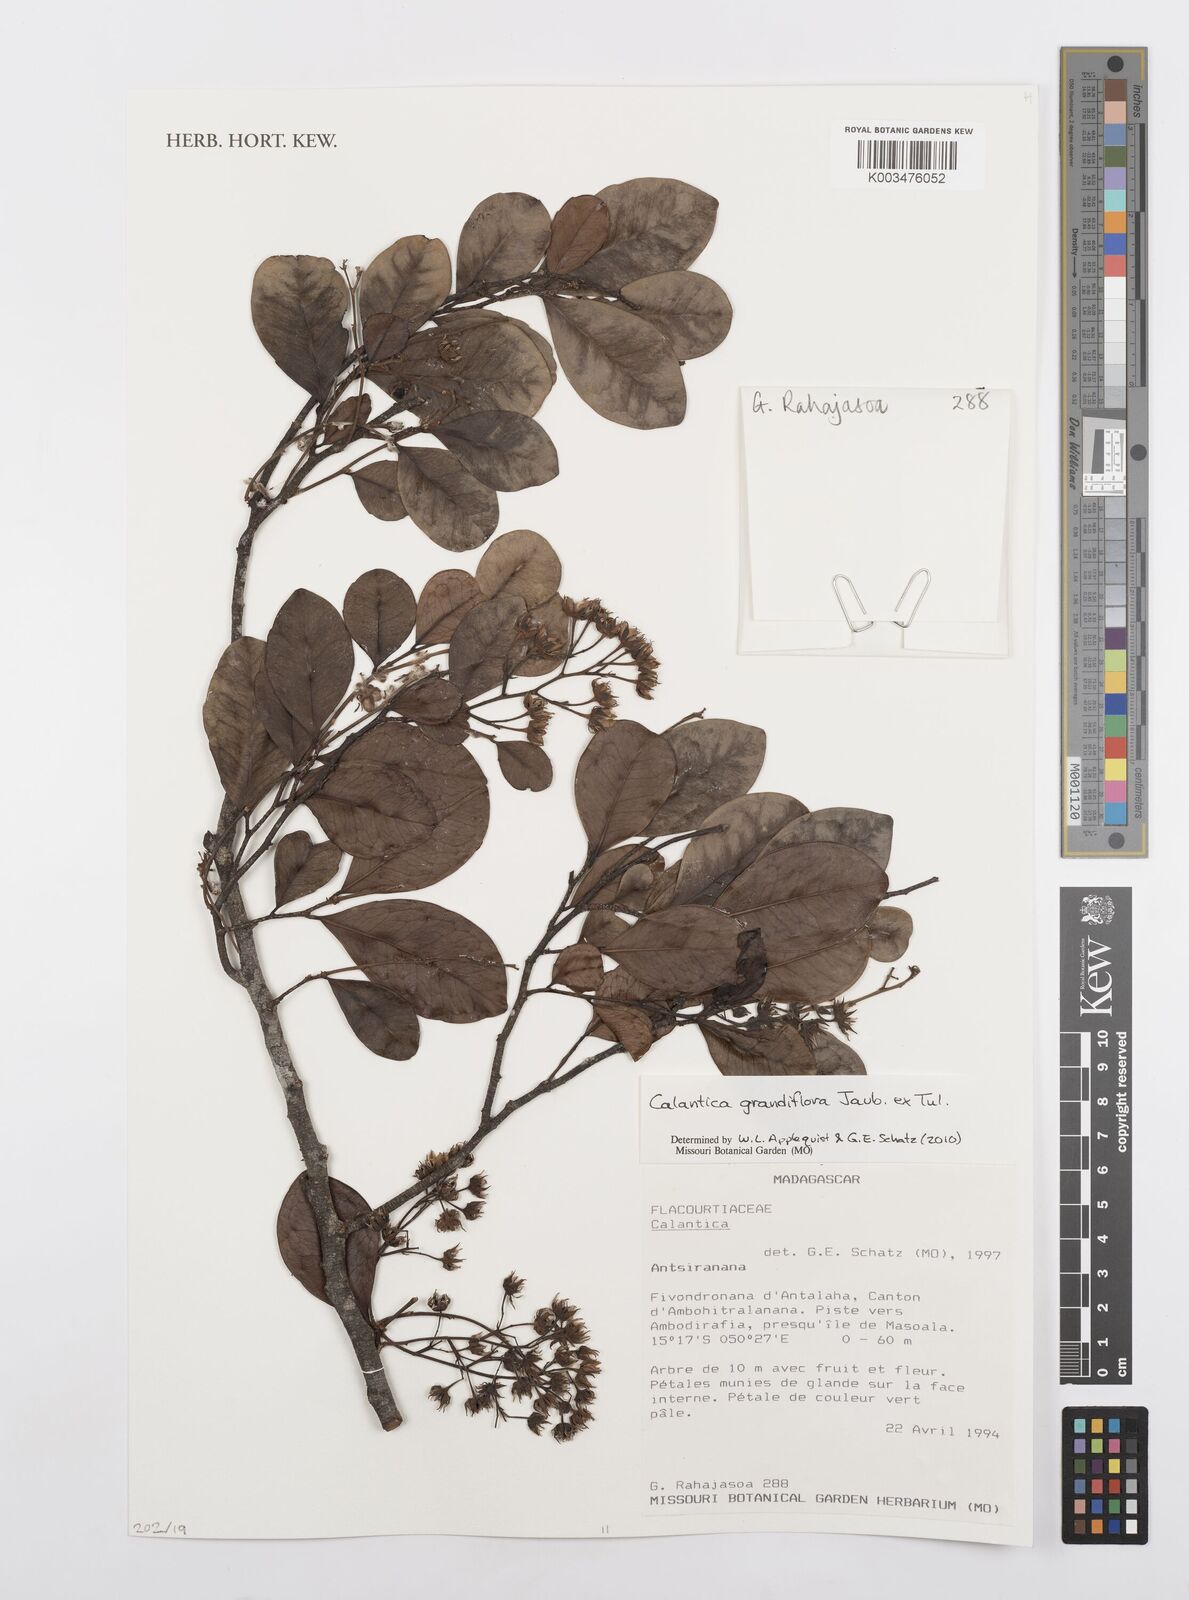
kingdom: Plantae
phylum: Tracheophyta
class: Magnoliopsida
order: Malpighiales
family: Salicaceae
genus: Calantica
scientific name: Calantica grandiflora
